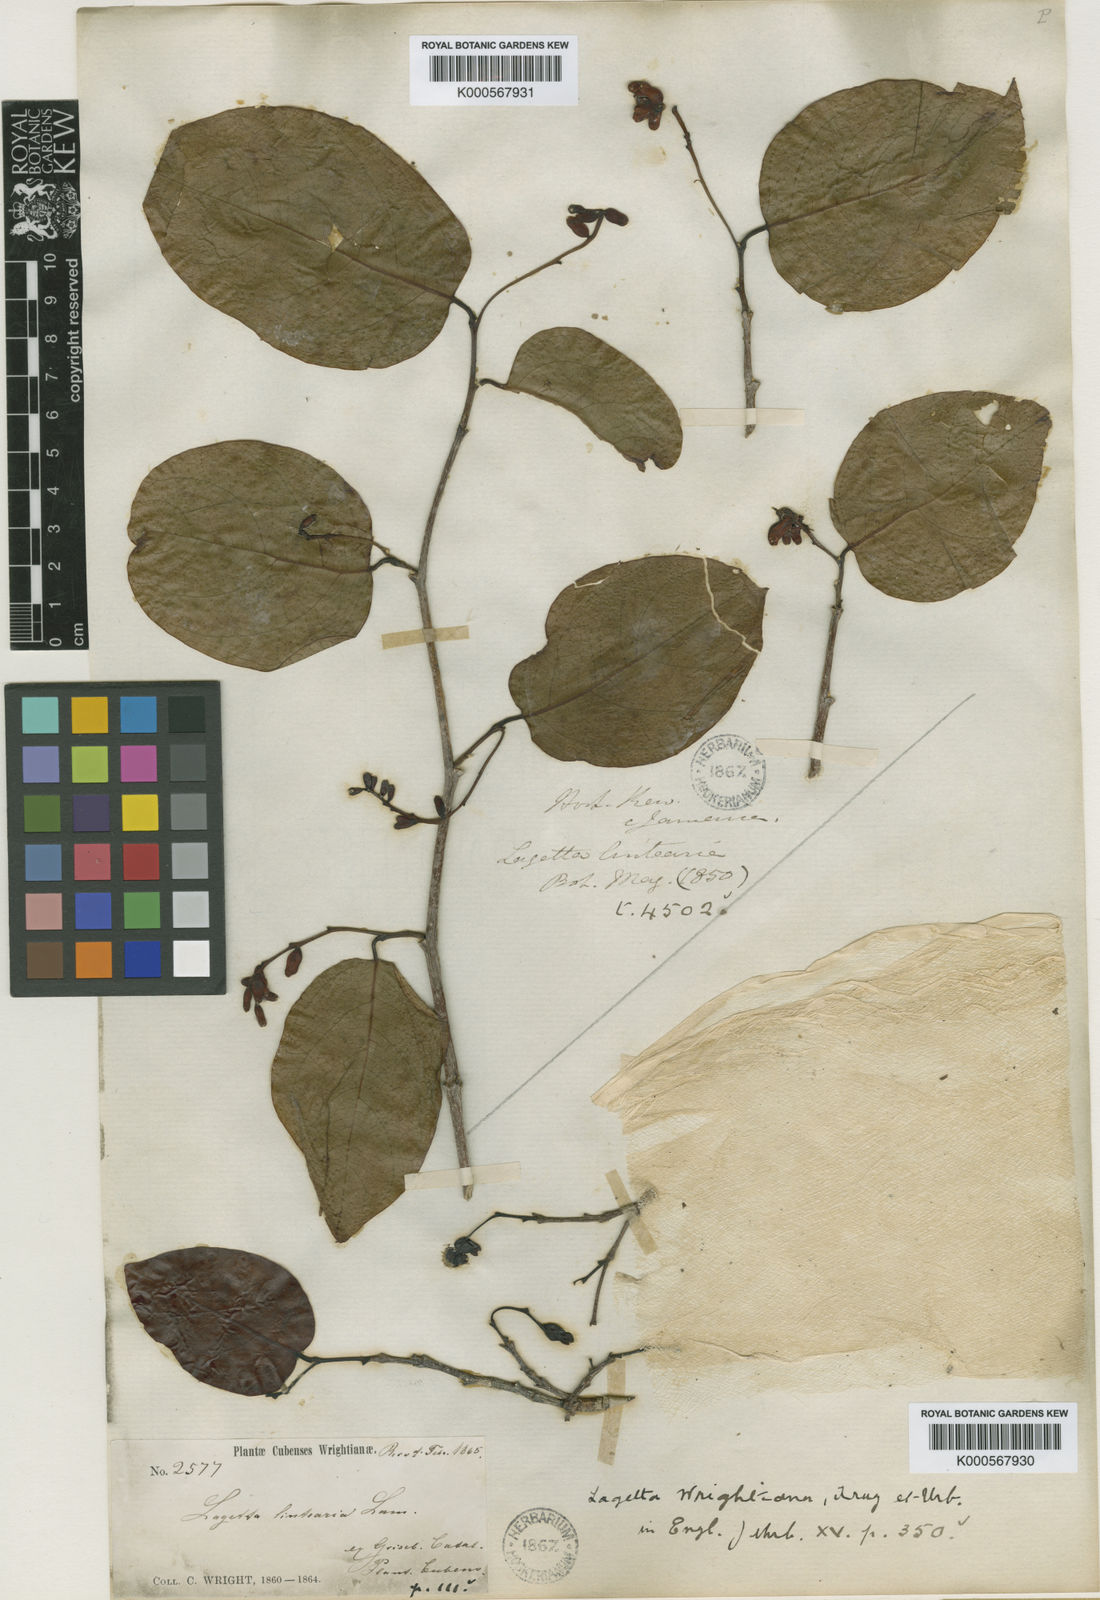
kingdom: Plantae
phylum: Tracheophyta
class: Magnoliopsida
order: Malvales
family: Thymelaeaceae
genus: Lagetta
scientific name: Lagetta wrightiana
